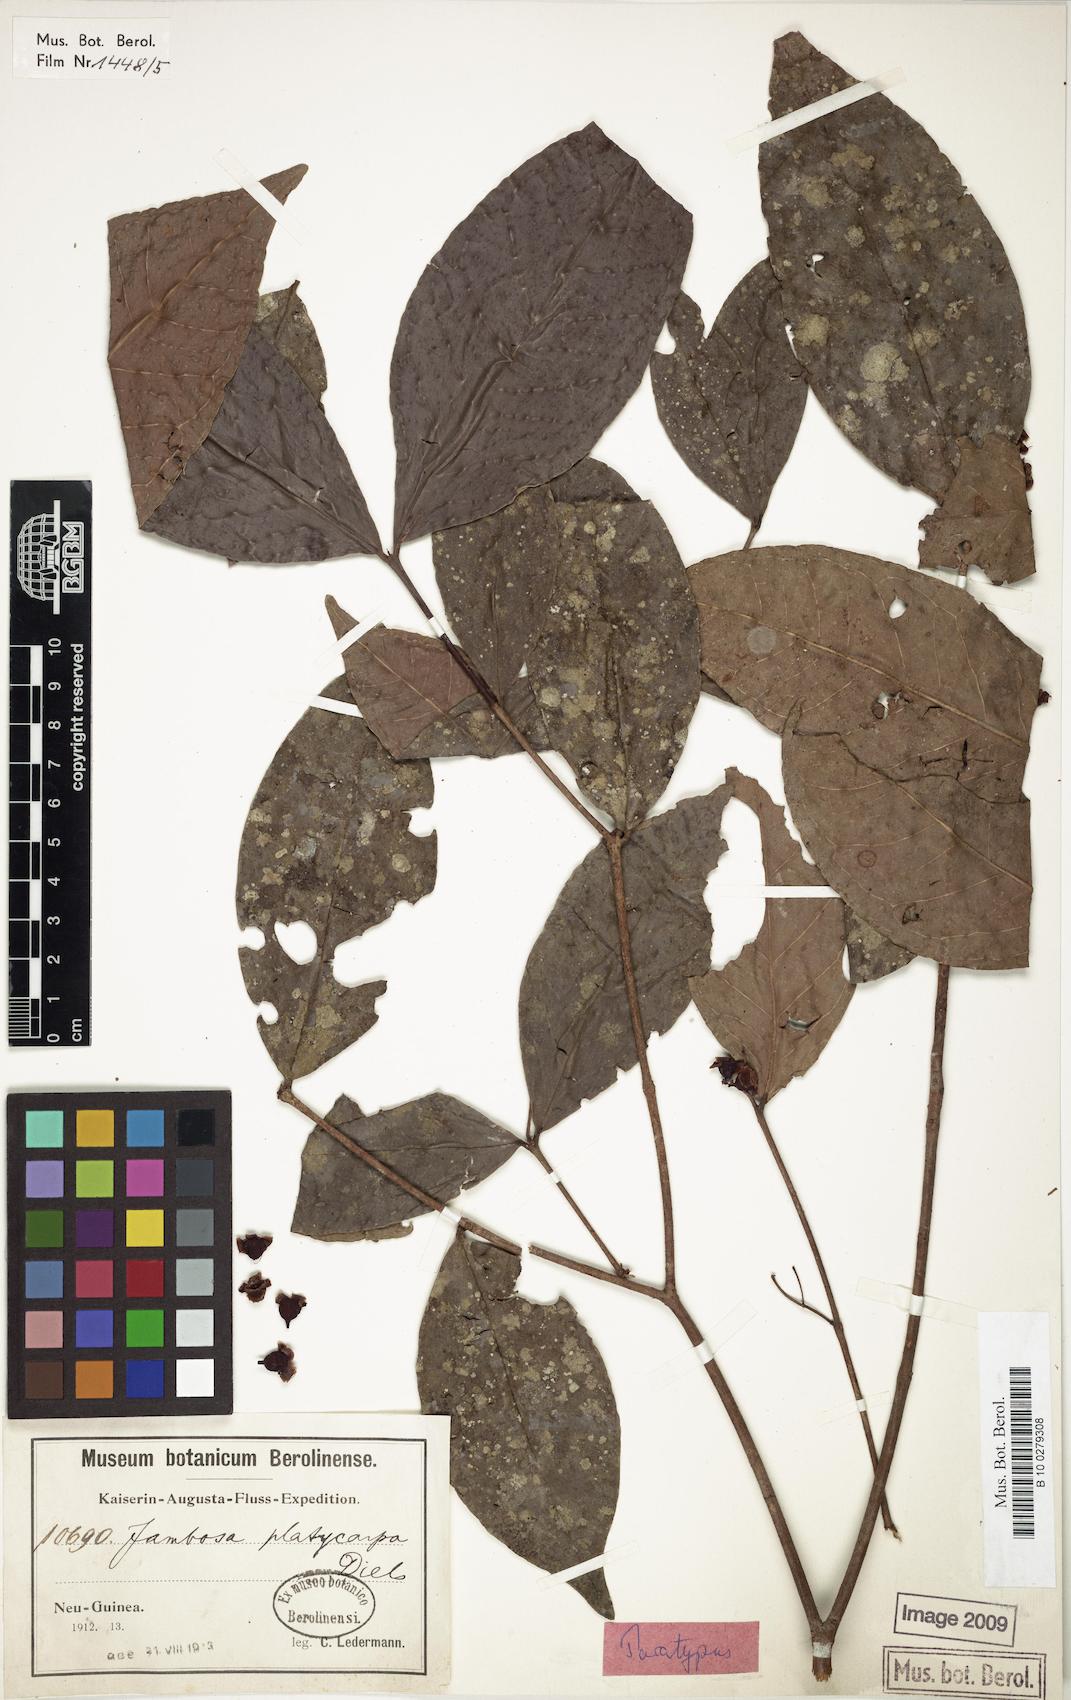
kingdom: Plantae
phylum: Tracheophyta
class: Magnoliopsida
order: Myrtales
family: Myrtaceae
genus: Syzygium
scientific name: Syzygium platycarpum
